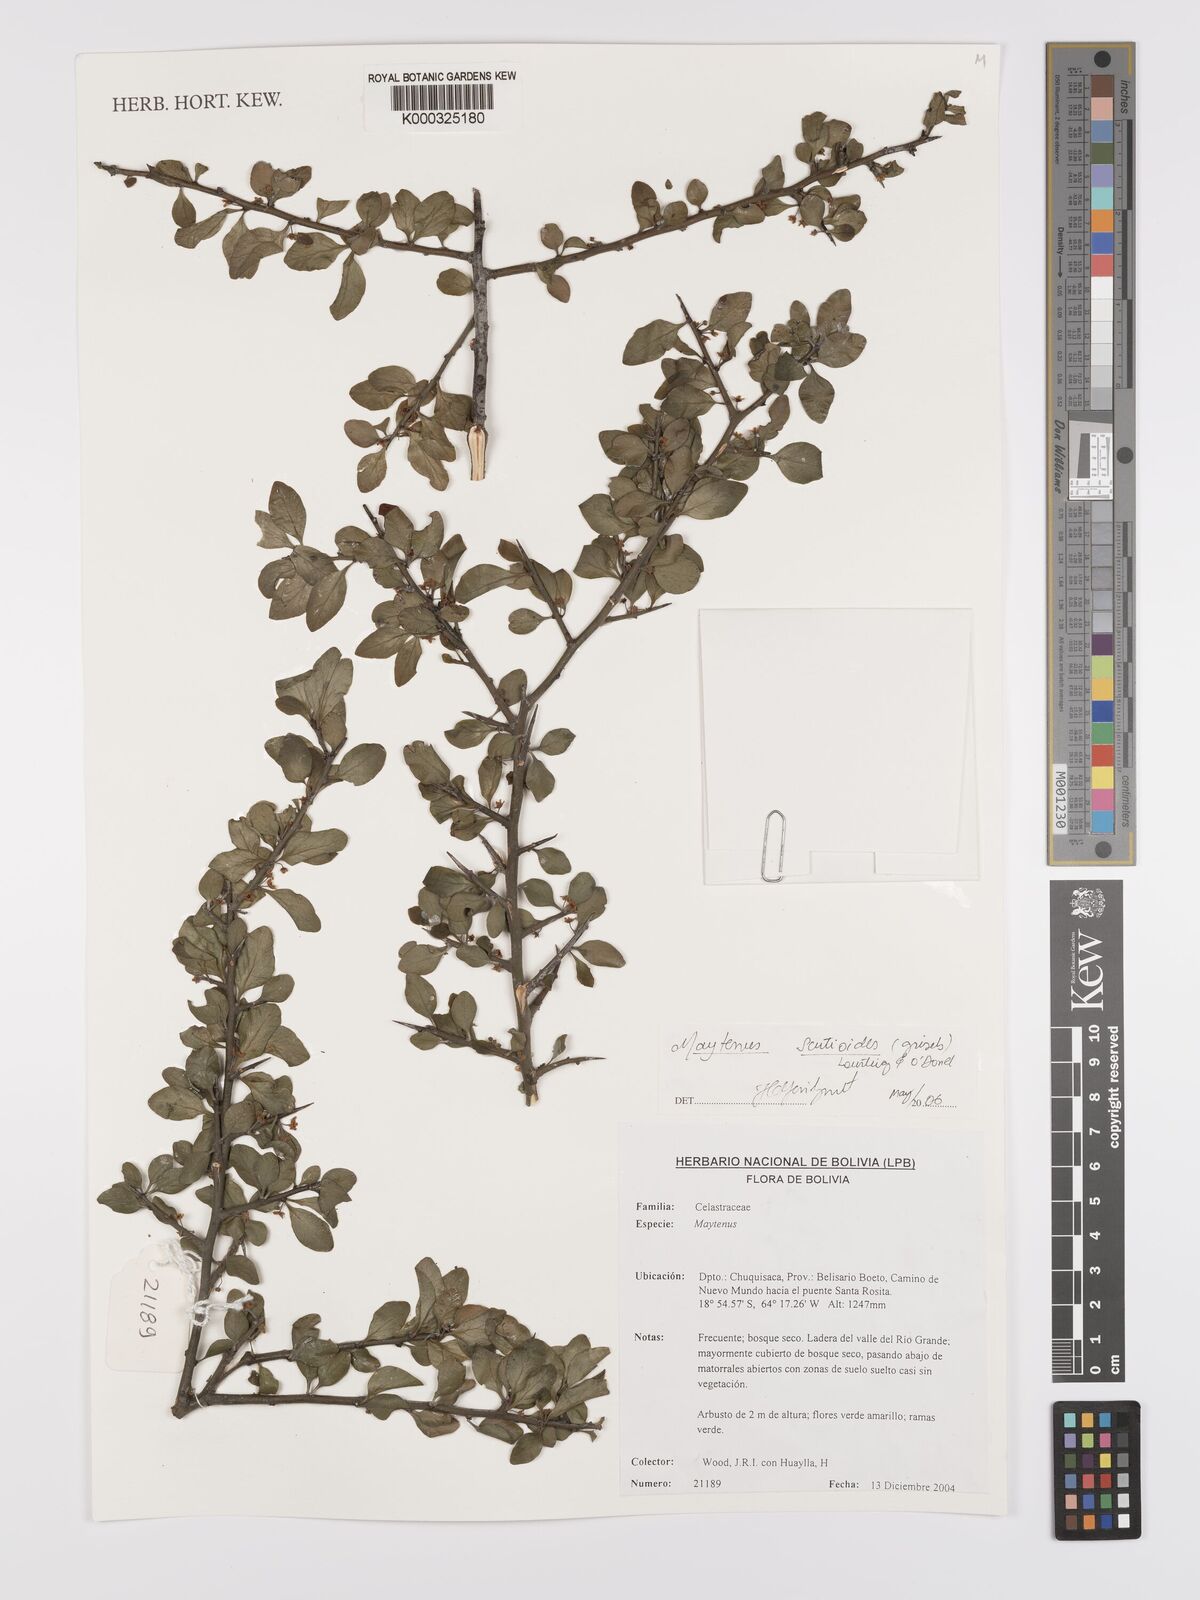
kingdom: Plantae
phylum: Tracheophyta
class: Magnoliopsida
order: Celastrales
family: Celastraceae
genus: Monteverdia
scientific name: Monteverdia spinosa
